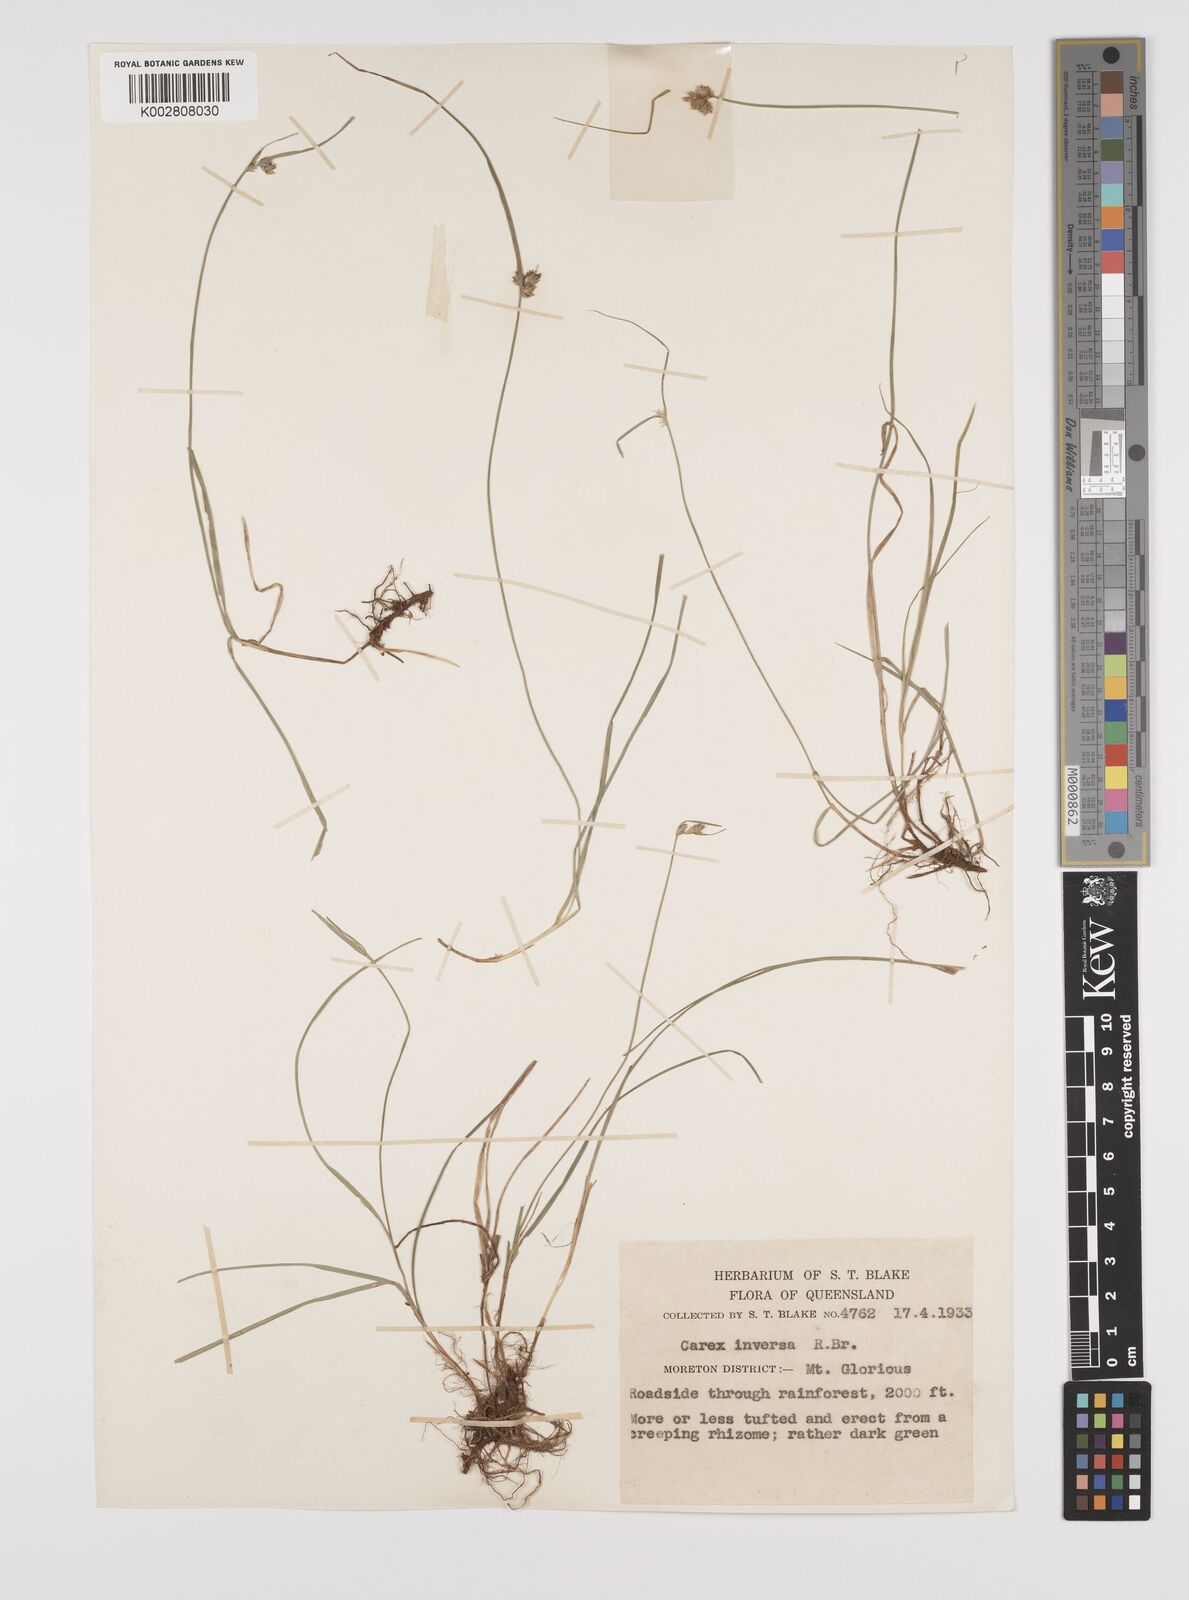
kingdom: Plantae
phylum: Tracheophyta
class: Liliopsida
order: Poales
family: Cyperaceae
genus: Carex
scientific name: Carex inversa
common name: Knob sedge
